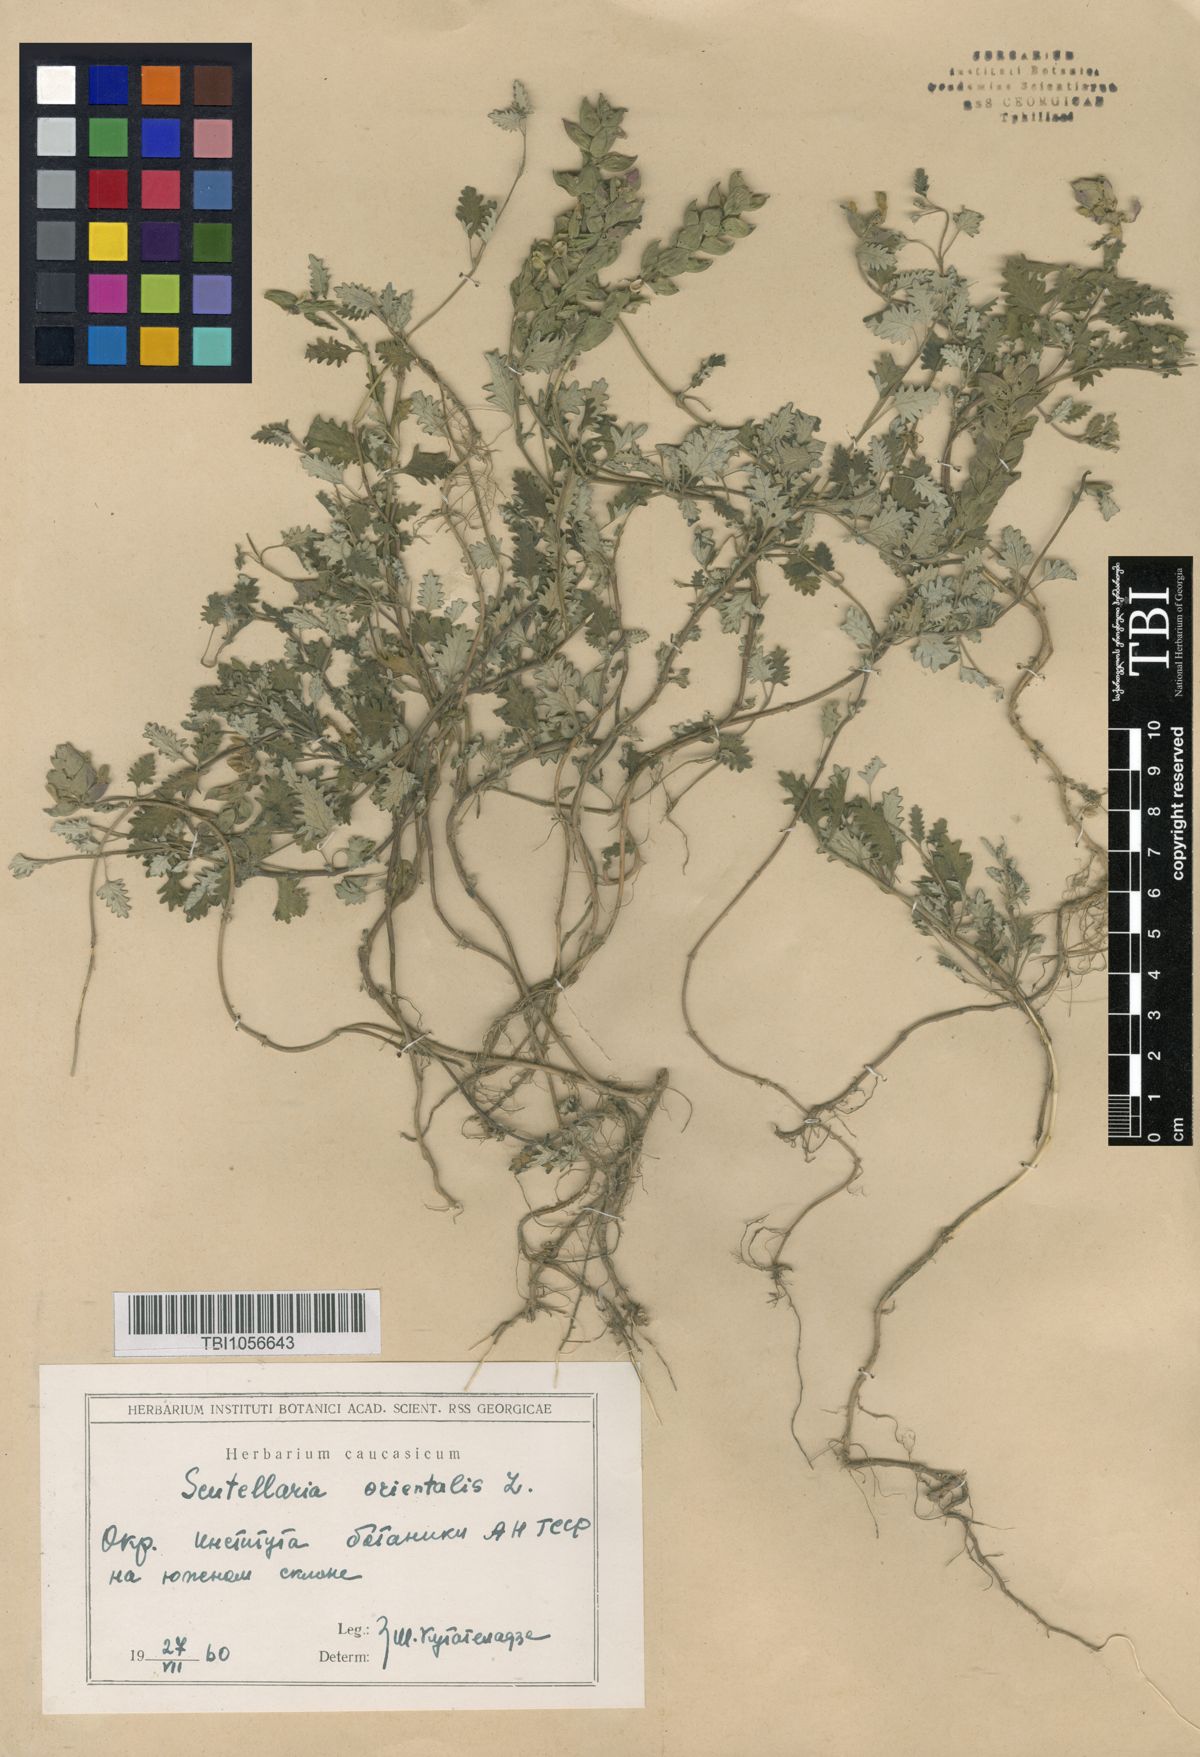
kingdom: Plantae
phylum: Tracheophyta
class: Magnoliopsida
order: Lamiales
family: Lamiaceae
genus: Scutellaria
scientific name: Scutellaria orientalis
